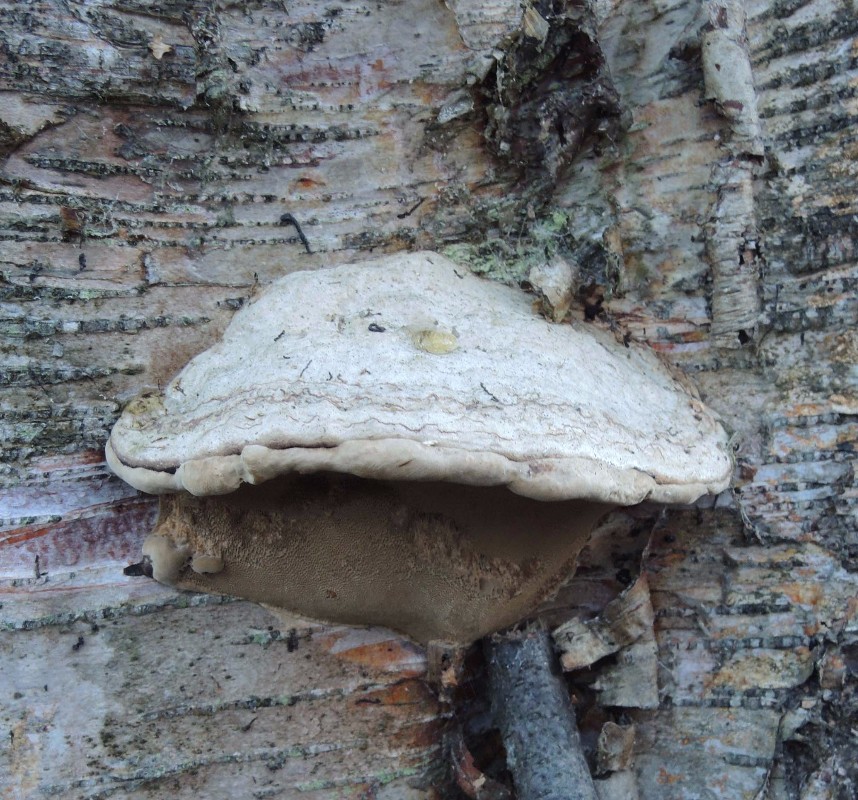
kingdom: Fungi
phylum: Basidiomycota
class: Agaricomycetes
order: Polyporales
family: Polyporaceae
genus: Fomes
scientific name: Fomes fomentarius
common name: tøndersvamp
